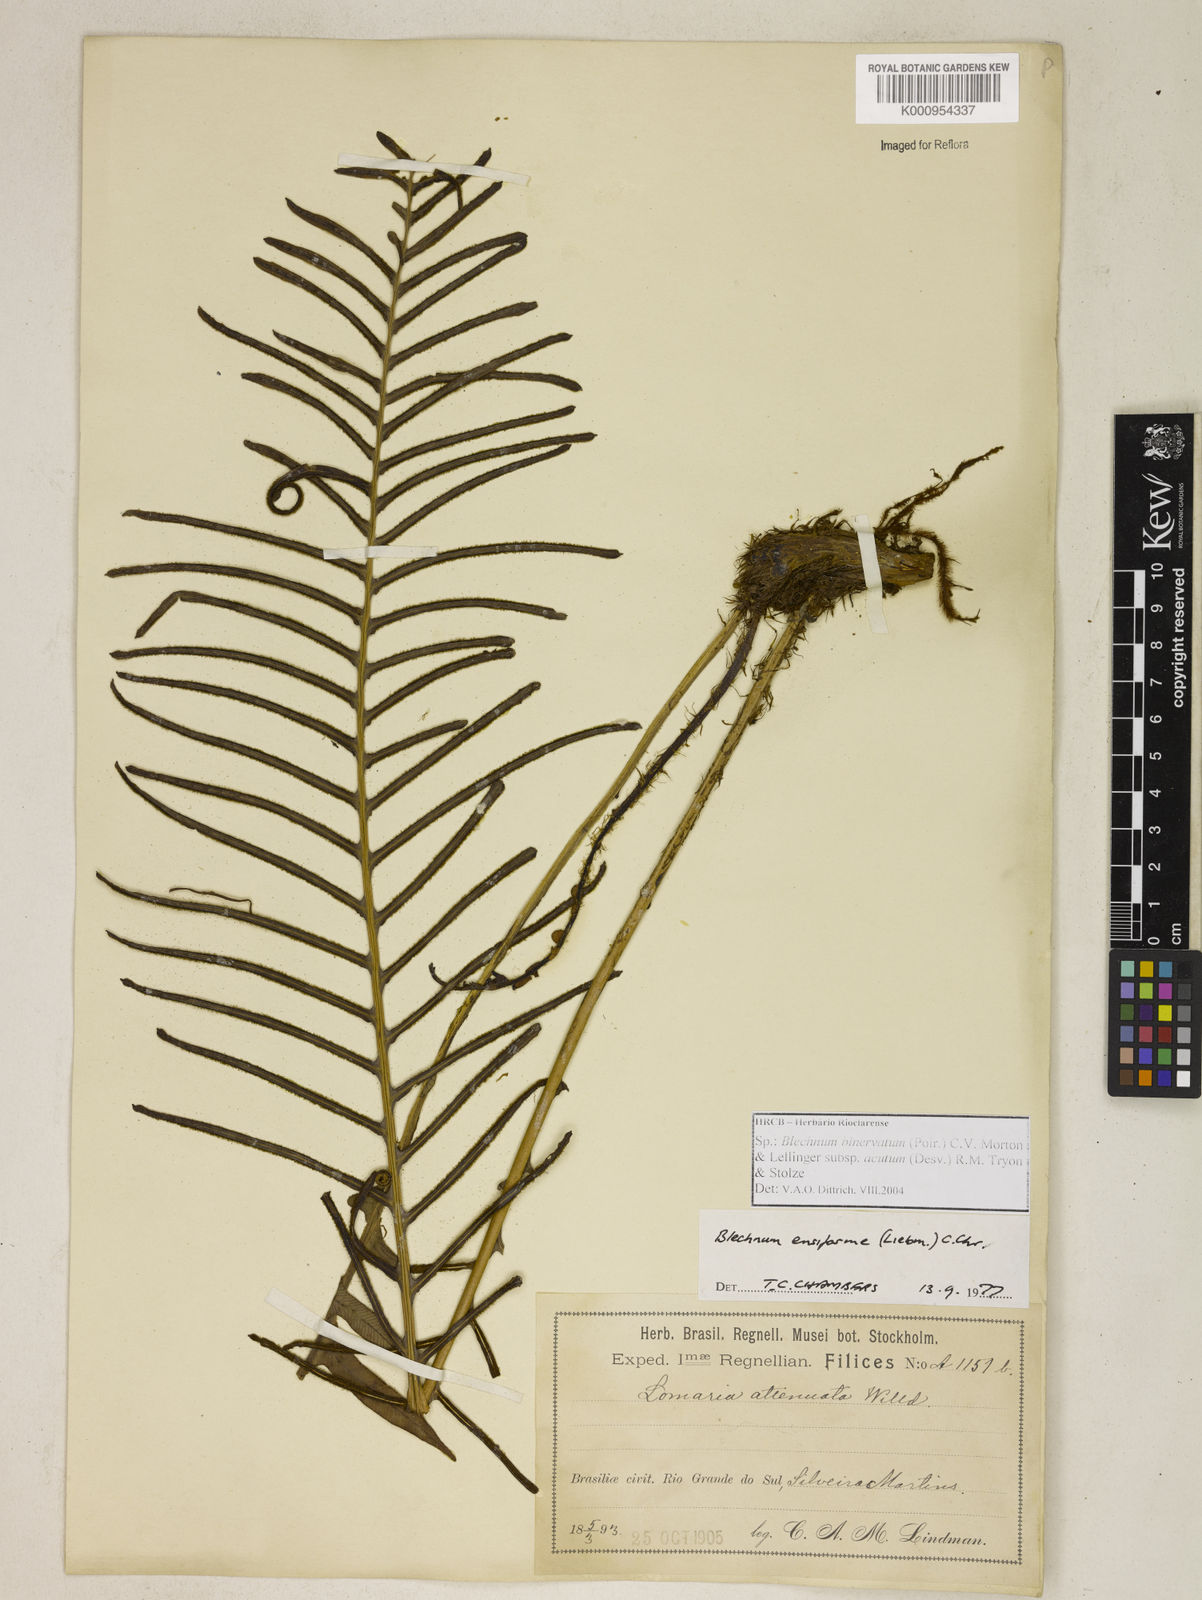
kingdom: Plantae
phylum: Tracheophyta
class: Polypodiopsida
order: Polypodiales
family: Blechnaceae
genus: Lomaridium
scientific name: Lomaridium ensiforme
